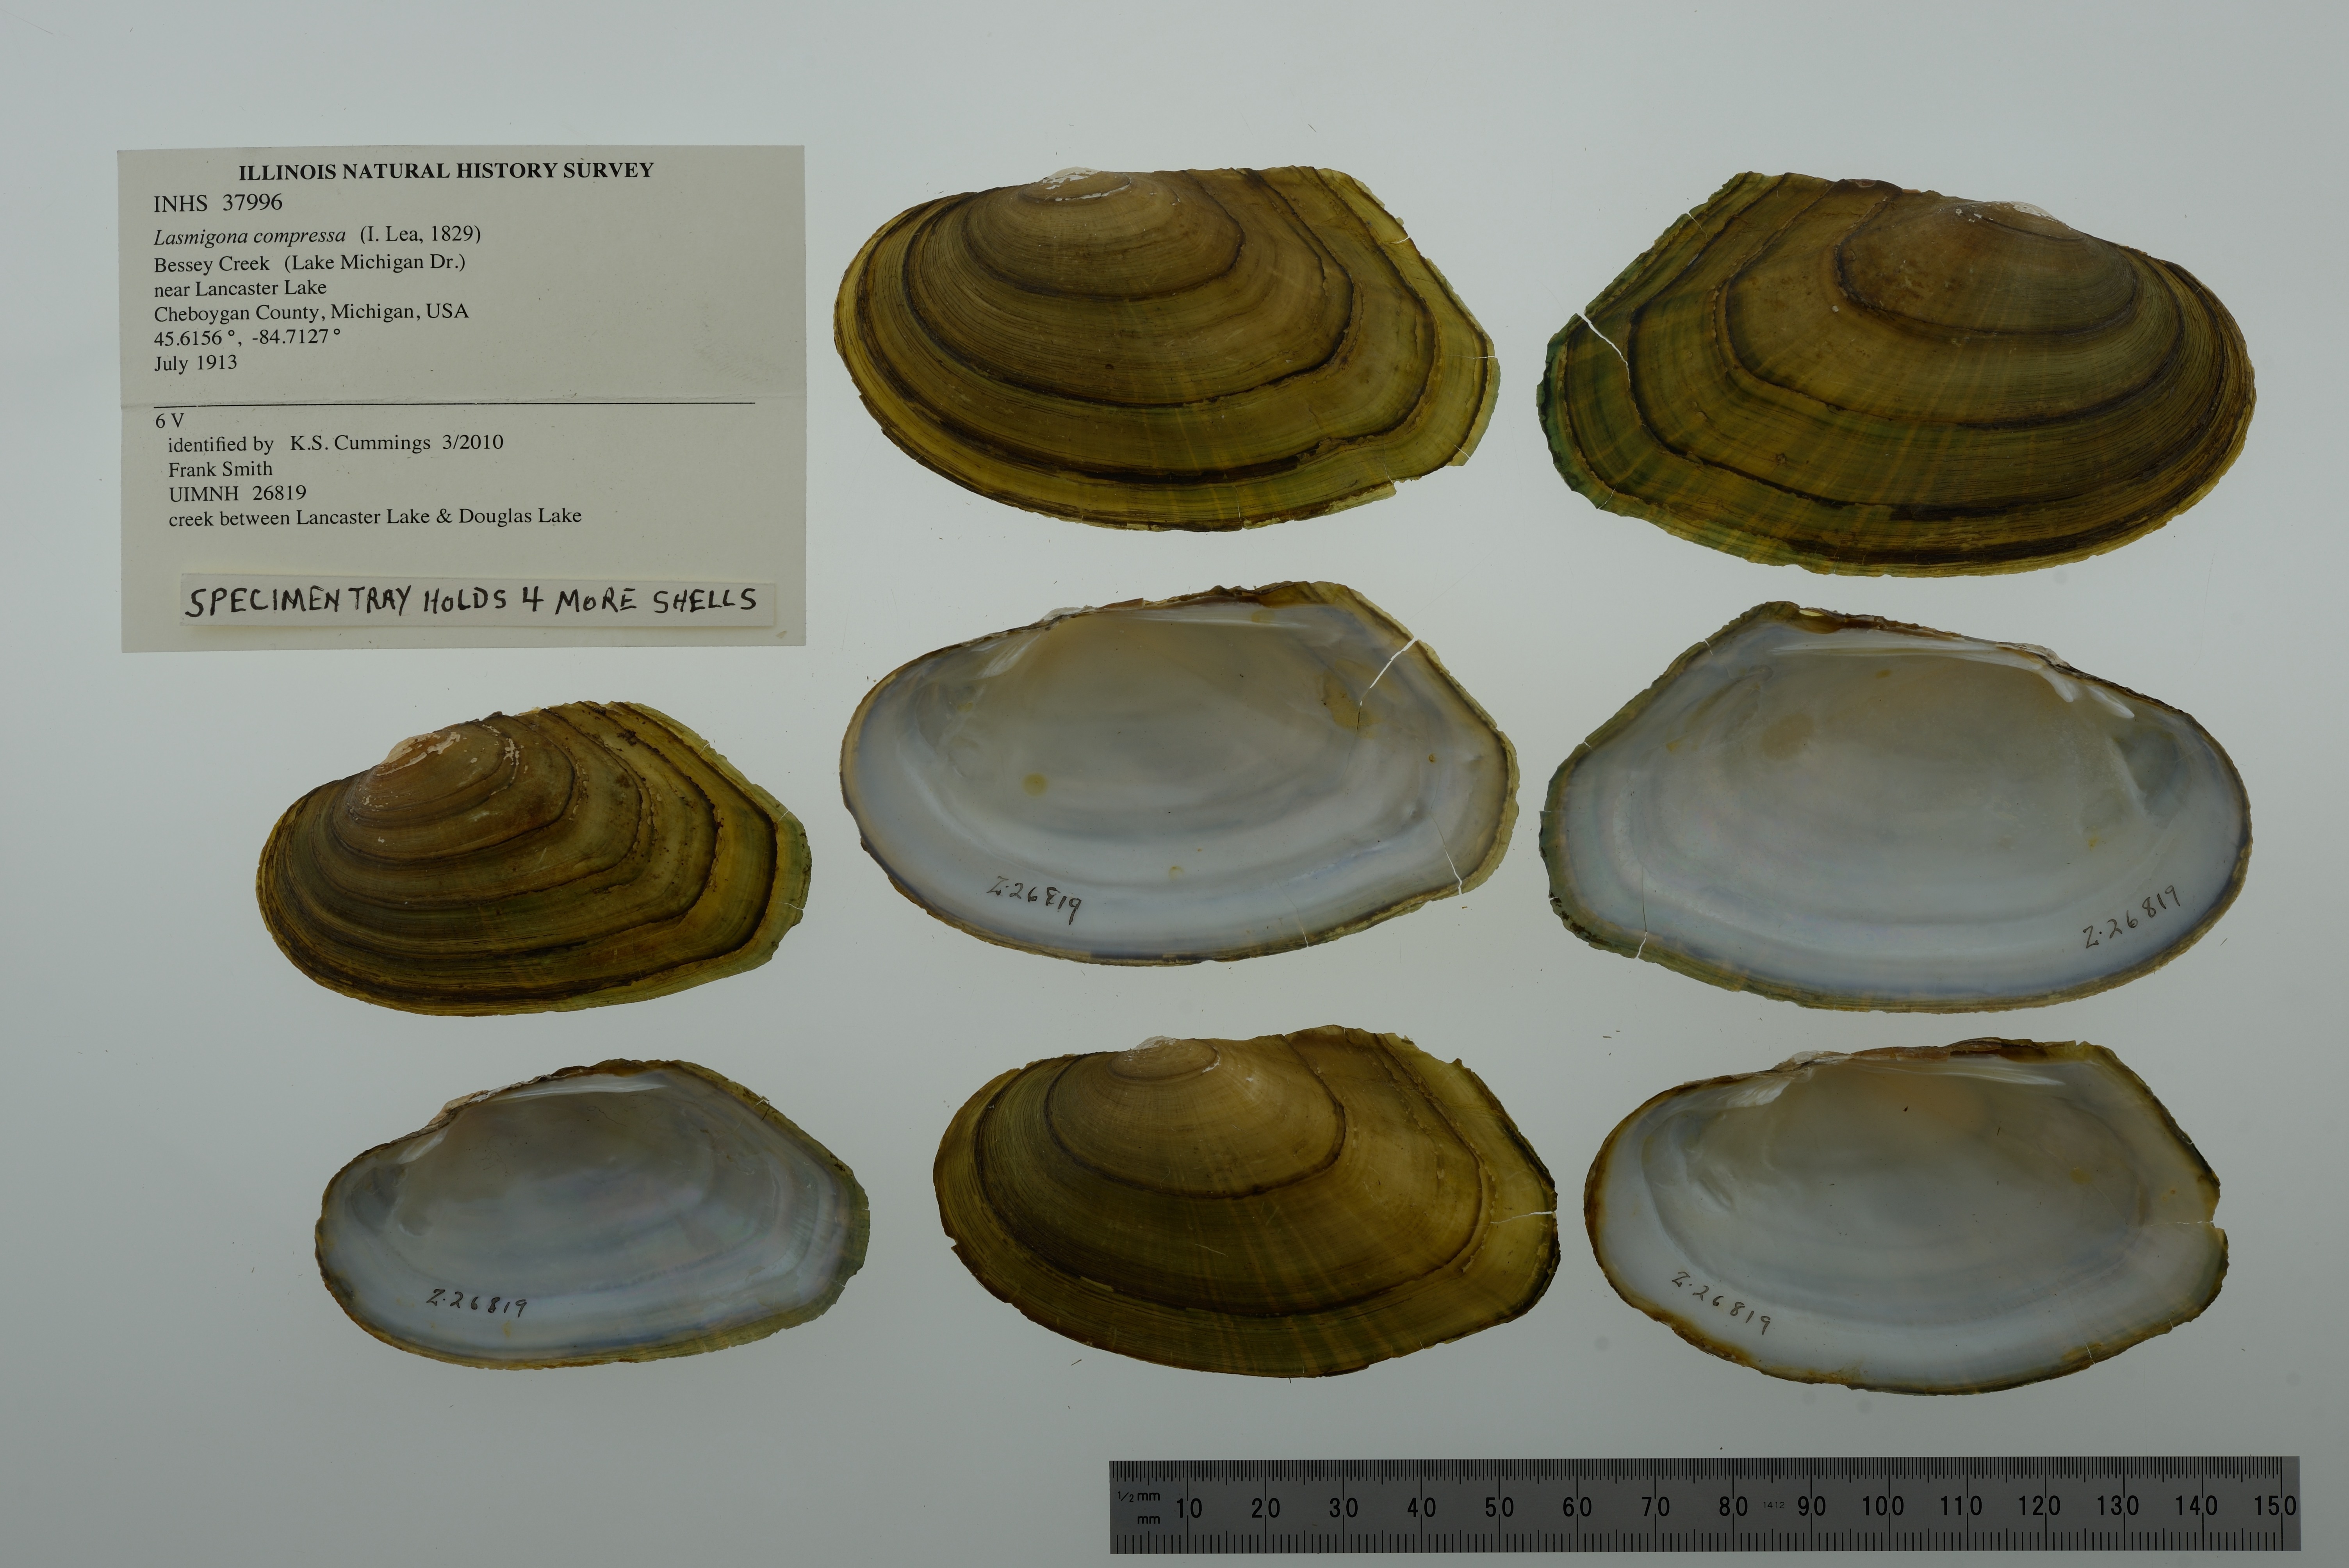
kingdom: Animalia
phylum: Mollusca
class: Bivalvia
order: Unionida
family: Unionidae
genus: Lasmigona
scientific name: Lasmigona compressa
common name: Creek heelsplitter
